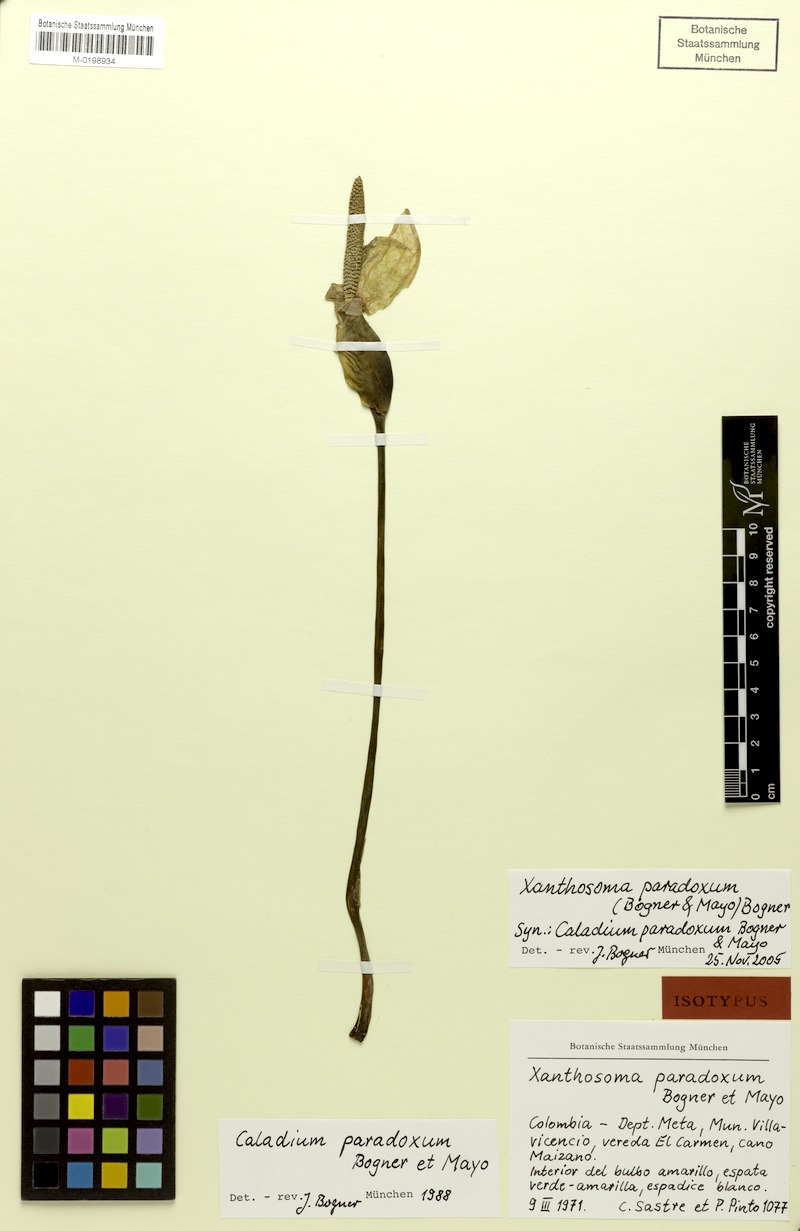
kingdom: Plantae
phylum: Tracheophyta
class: Liliopsida
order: Alismatales
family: Araceae
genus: Xanthosoma
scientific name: Xanthosoma paradoxum
